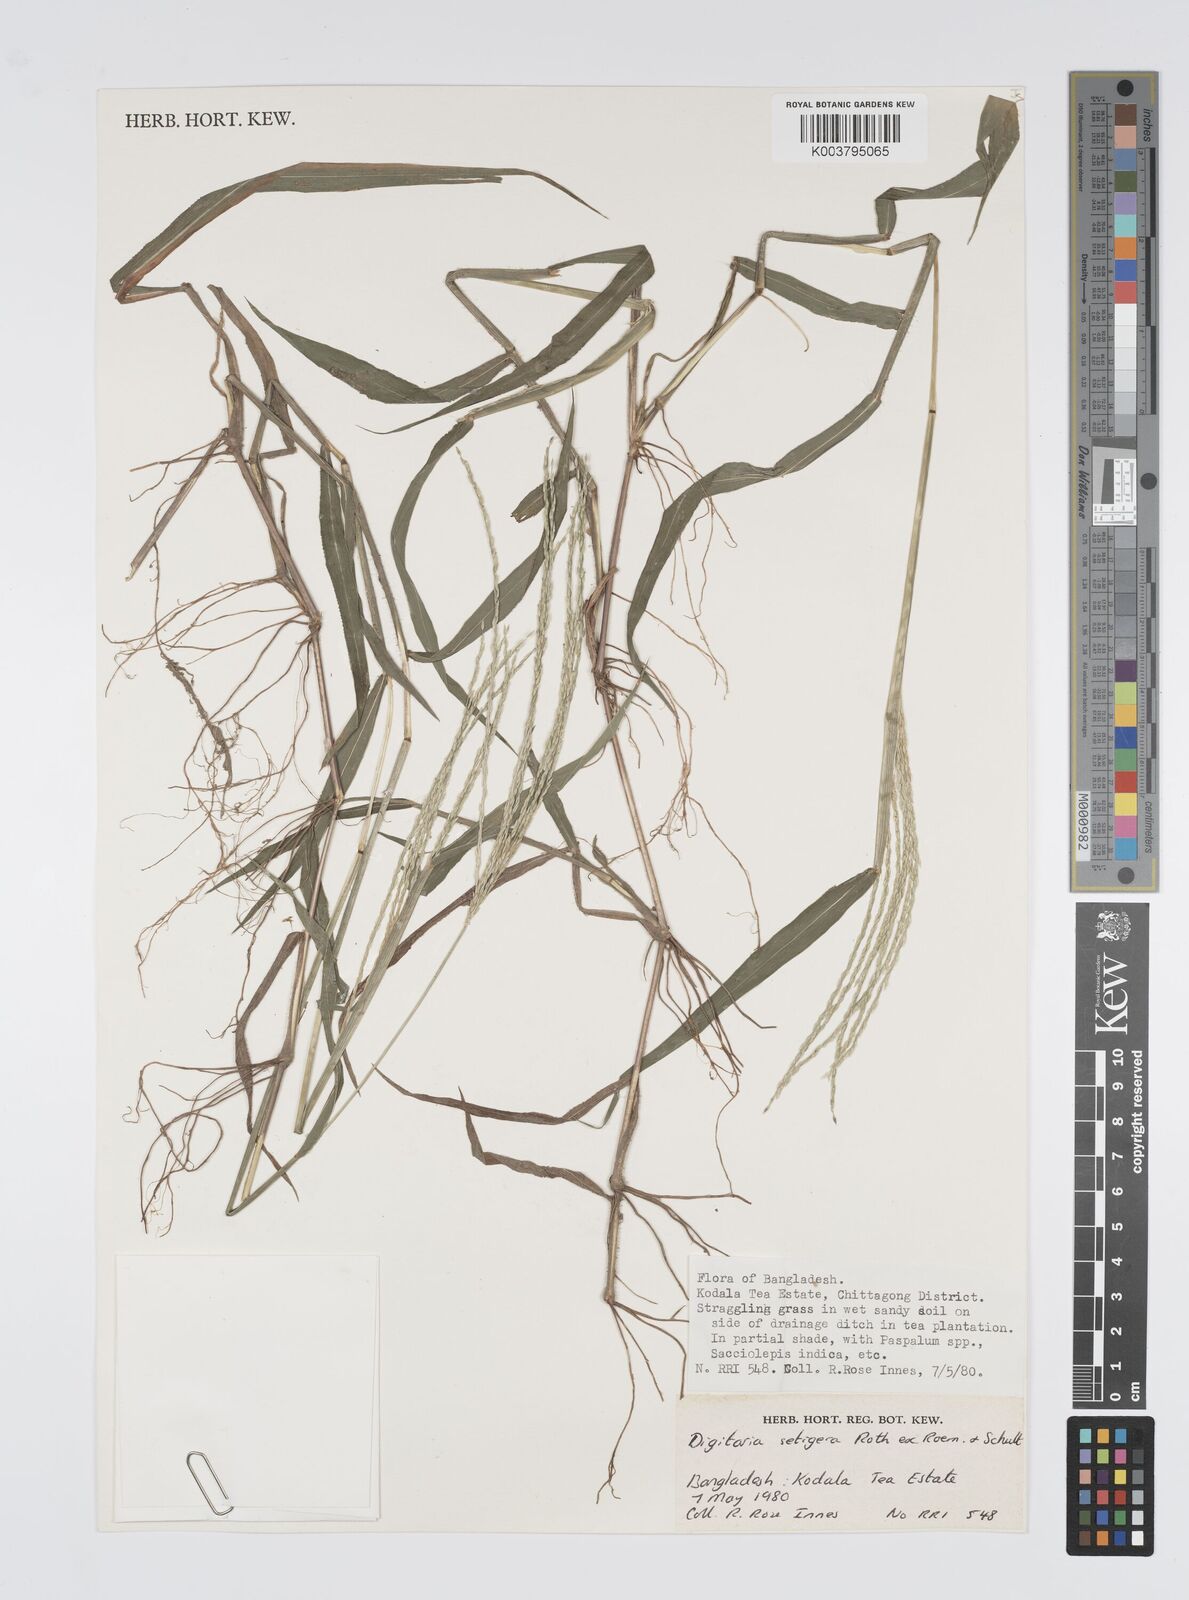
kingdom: Plantae
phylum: Tracheophyta
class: Liliopsida
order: Poales
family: Poaceae
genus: Digitaria
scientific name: Digitaria setigera
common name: East indian crabgrass
